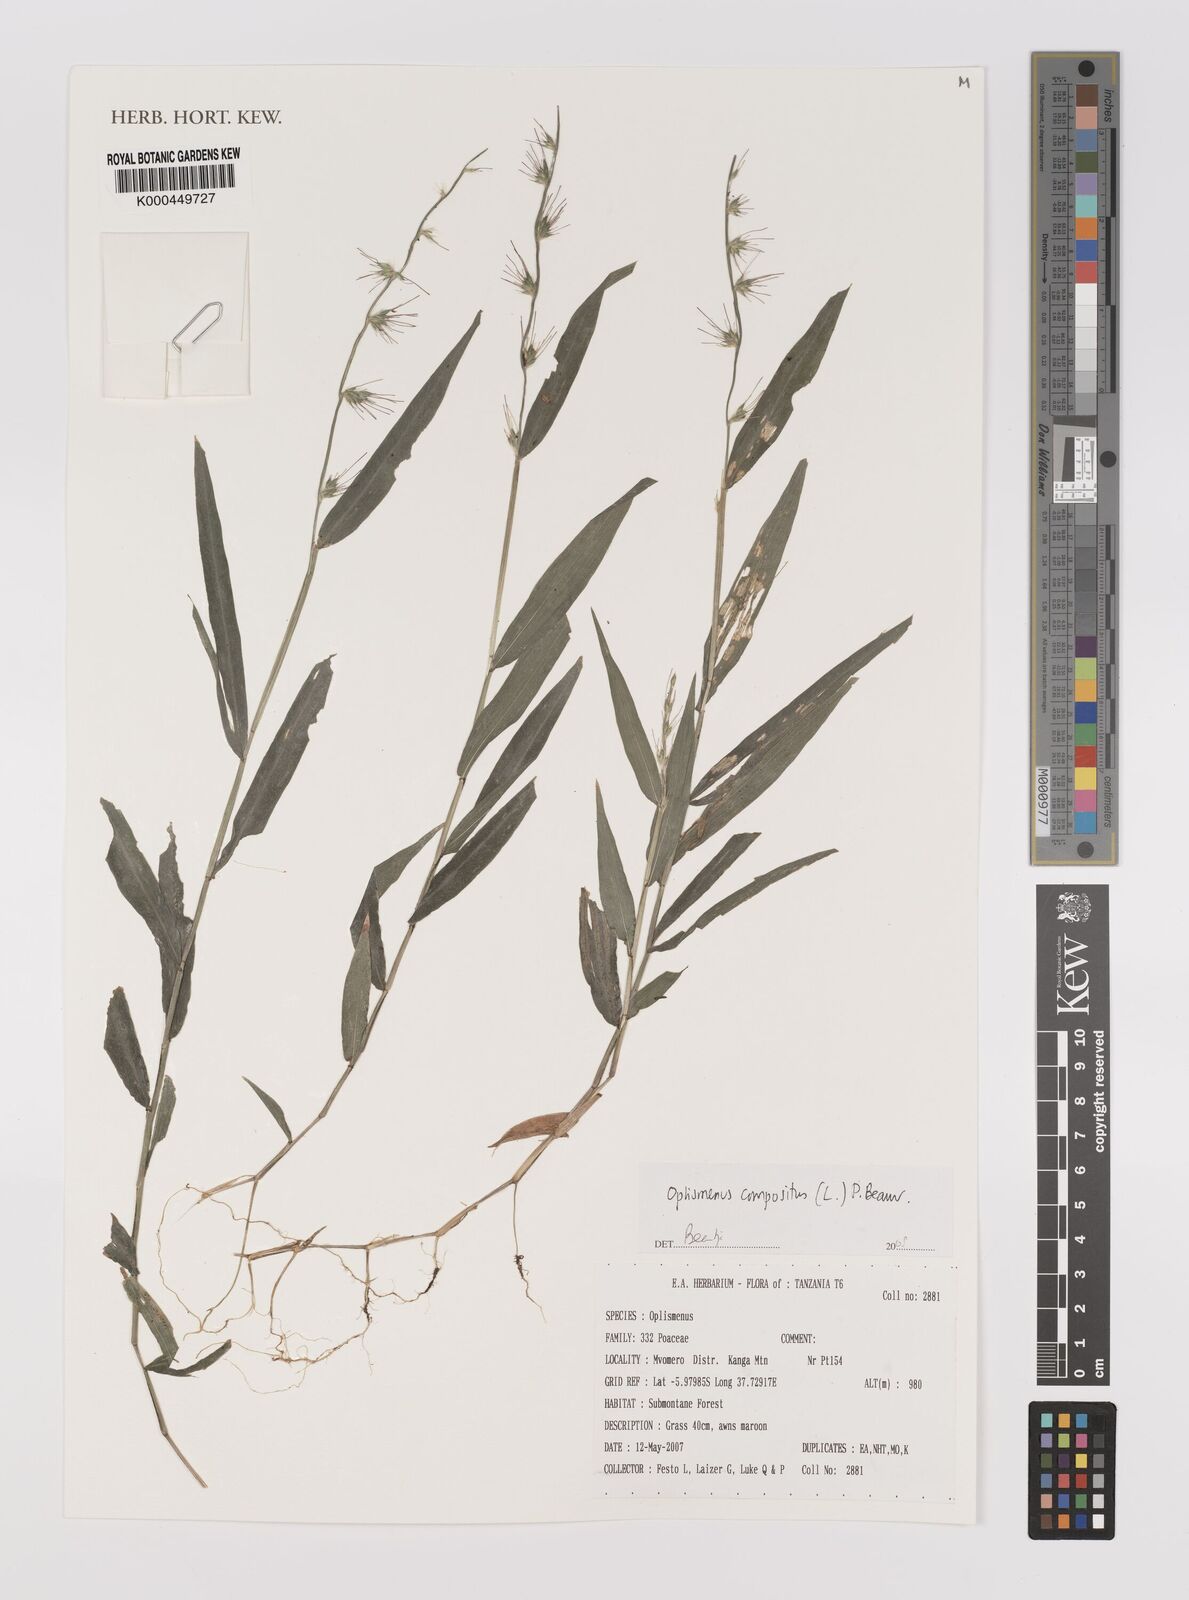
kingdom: Plantae
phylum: Tracheophyta
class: Liliopsida
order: Poales
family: Poaceae
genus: Oplismenus
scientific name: Oplismenus compositus
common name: Running mountain grass
